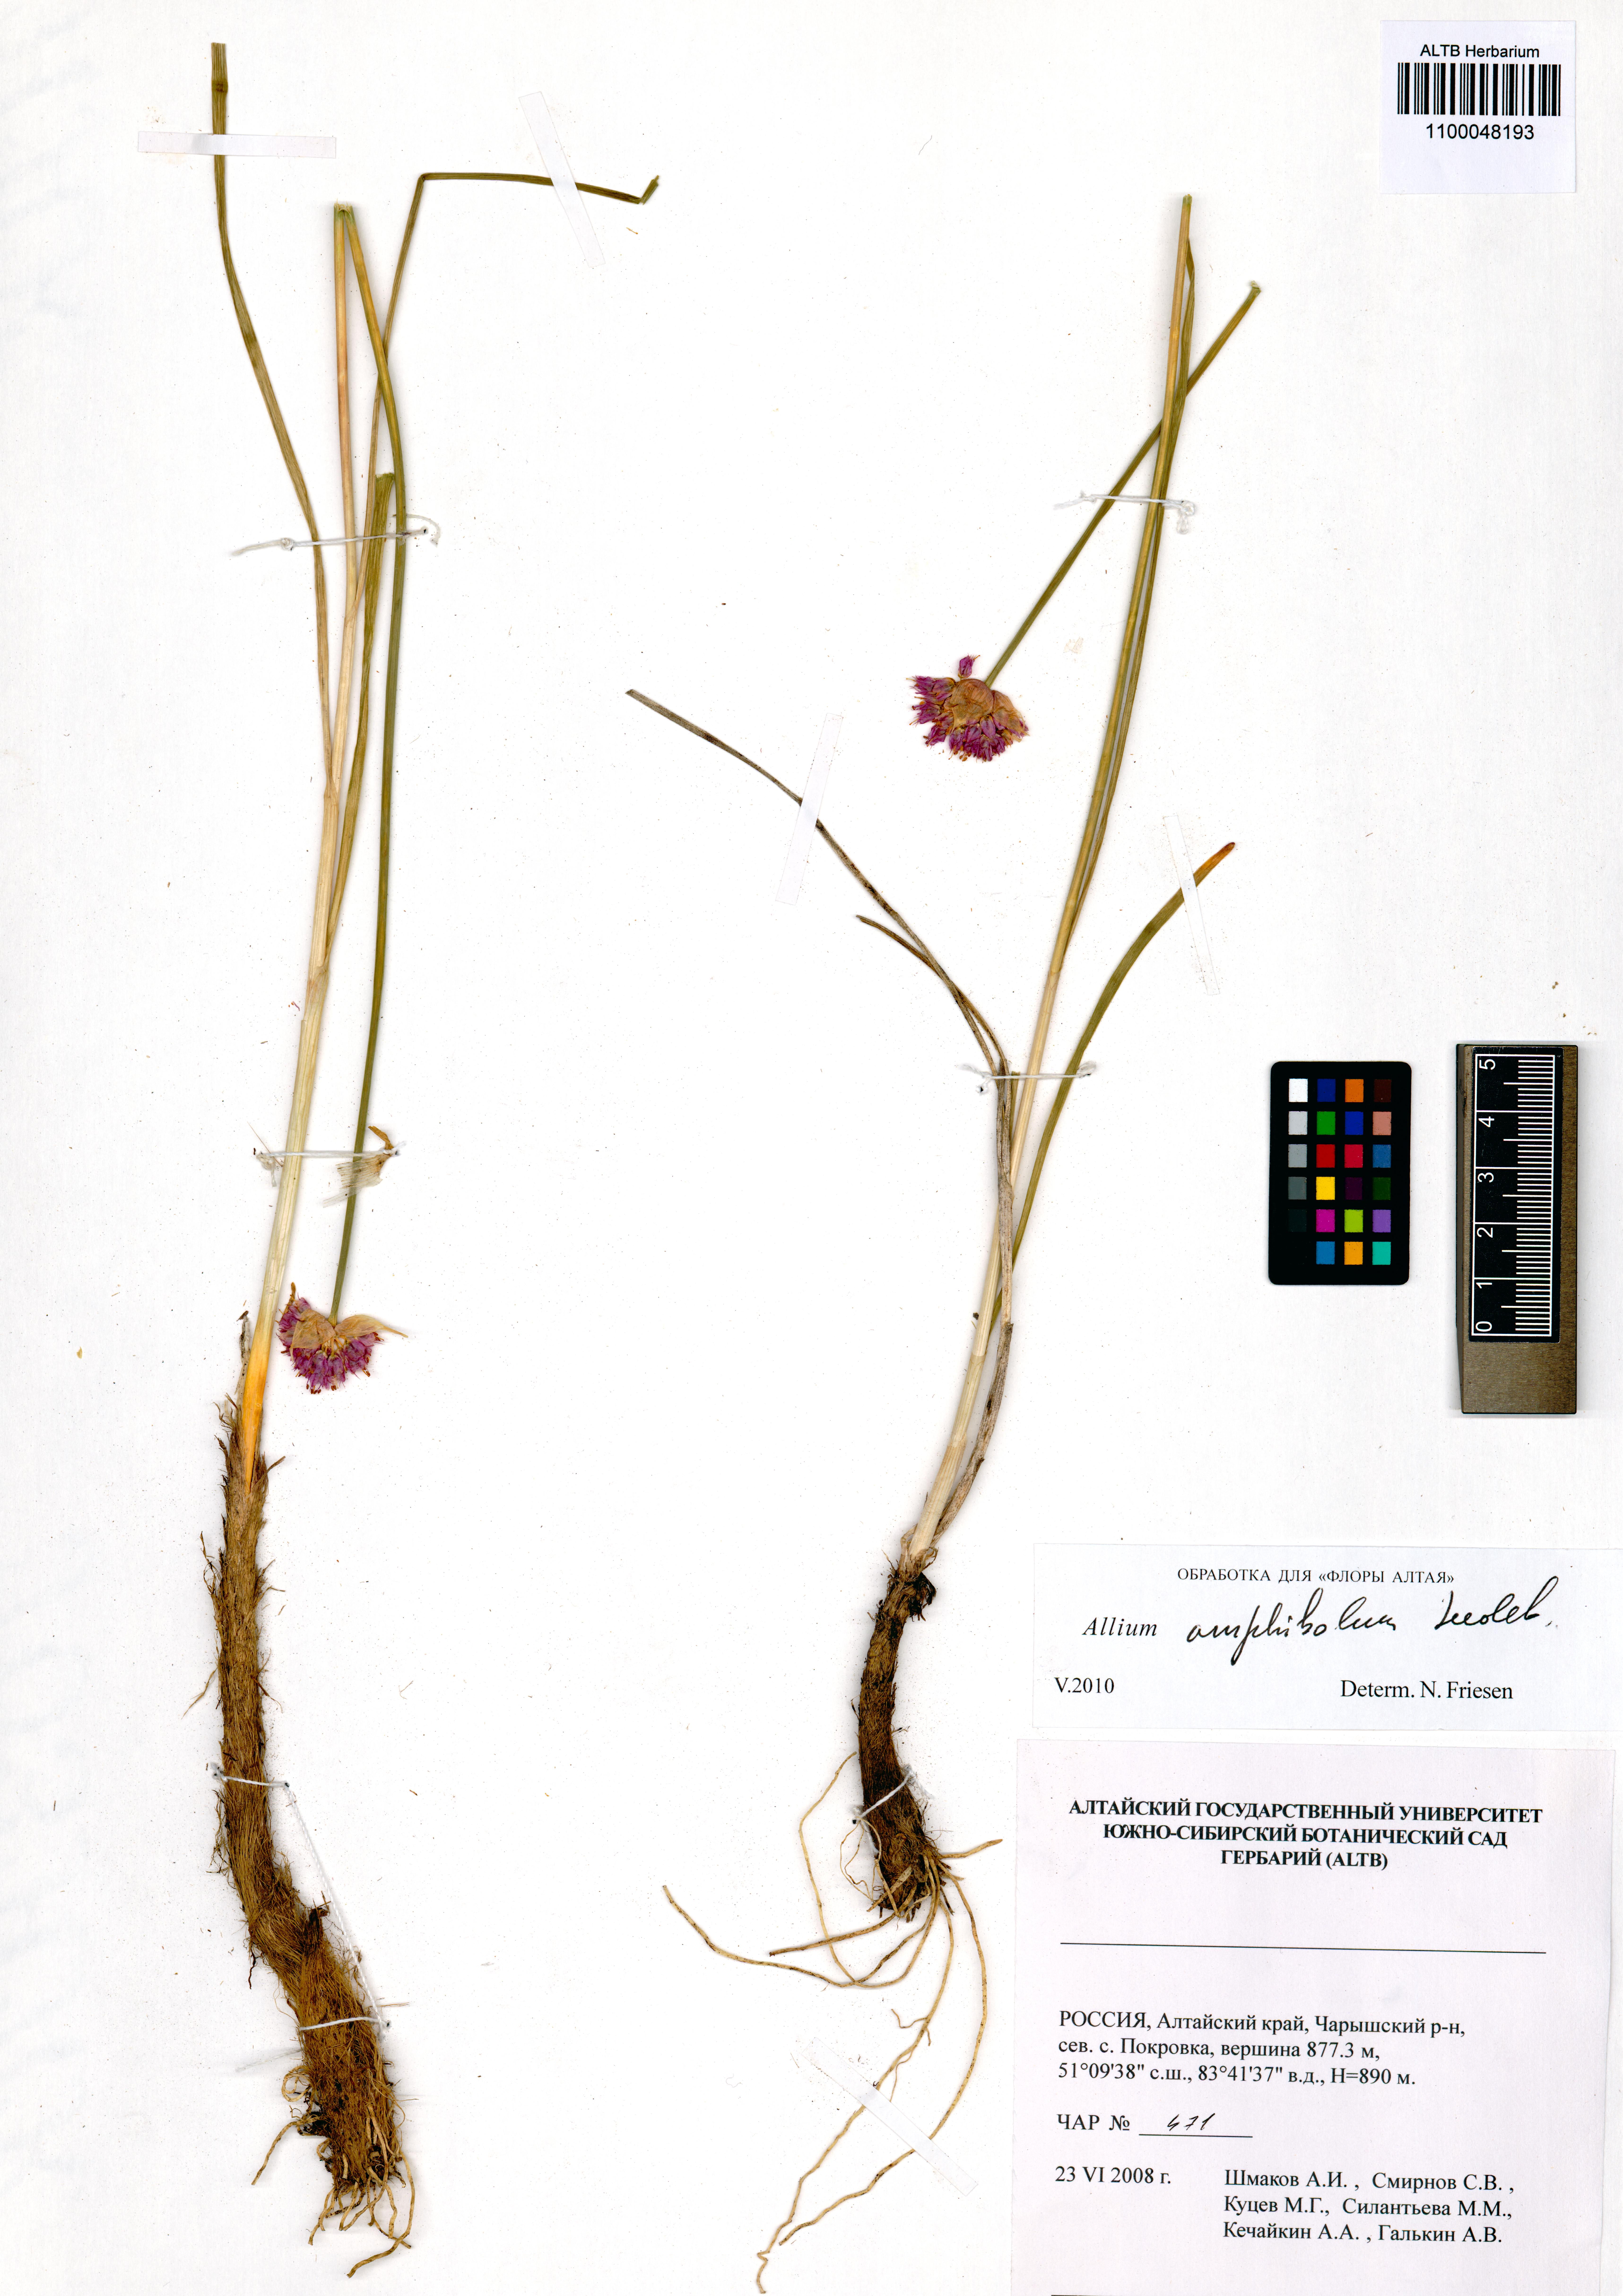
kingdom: Plantae
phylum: Tracheophyta
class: Liliopsida
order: Asparagales
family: Amaryllidaceae
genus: Allium
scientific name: Allium amphibolum
